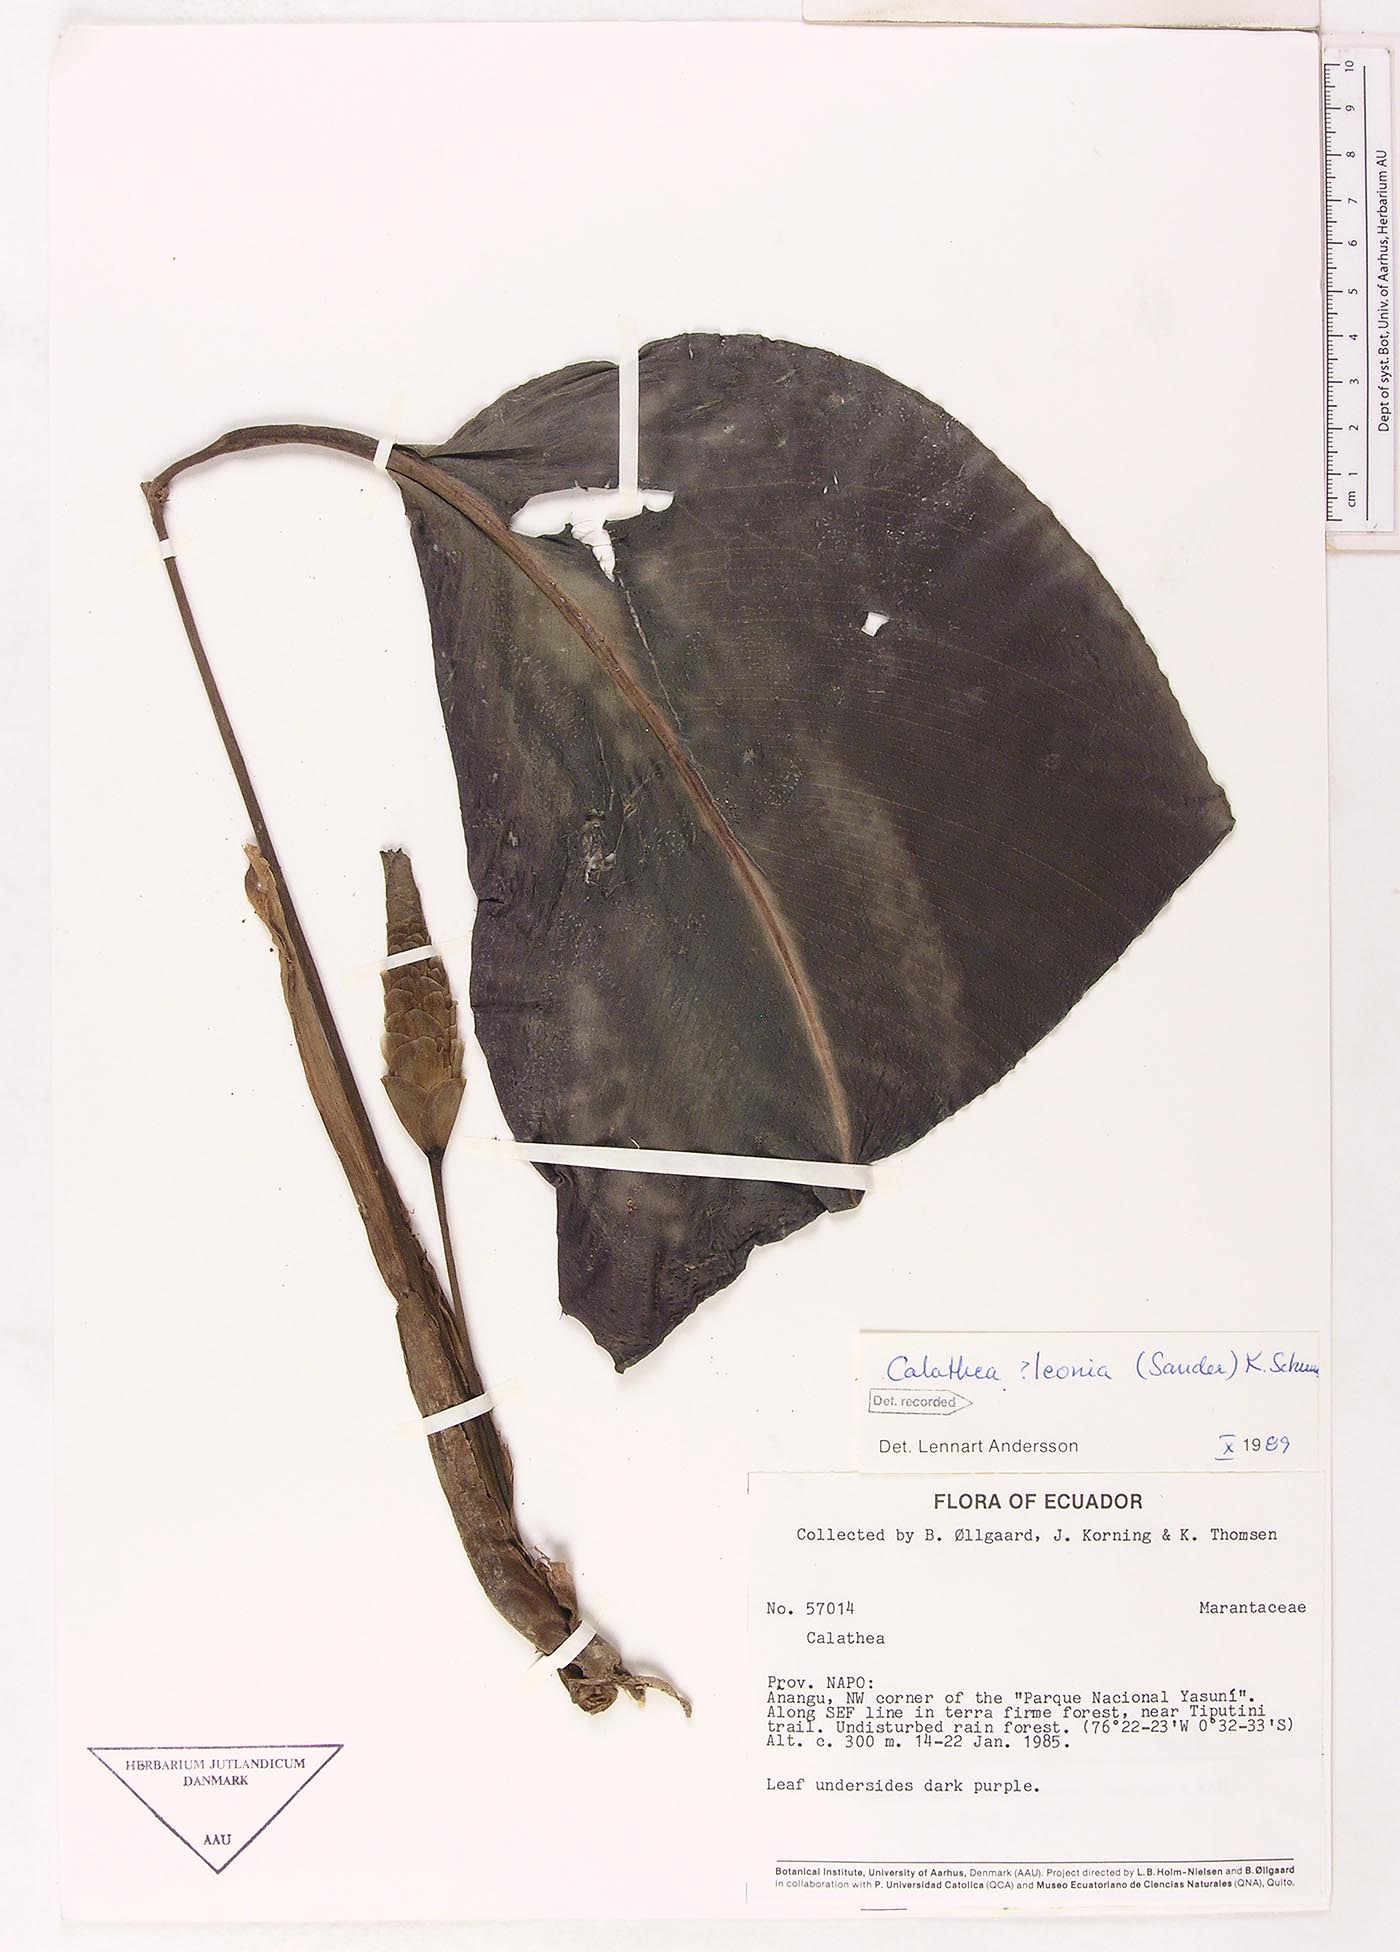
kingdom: Plantae
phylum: Tracheophyta
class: Liliopsida
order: Zingiberales
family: Marantaceae
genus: Goeppertia
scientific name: Goeppertia leonia
